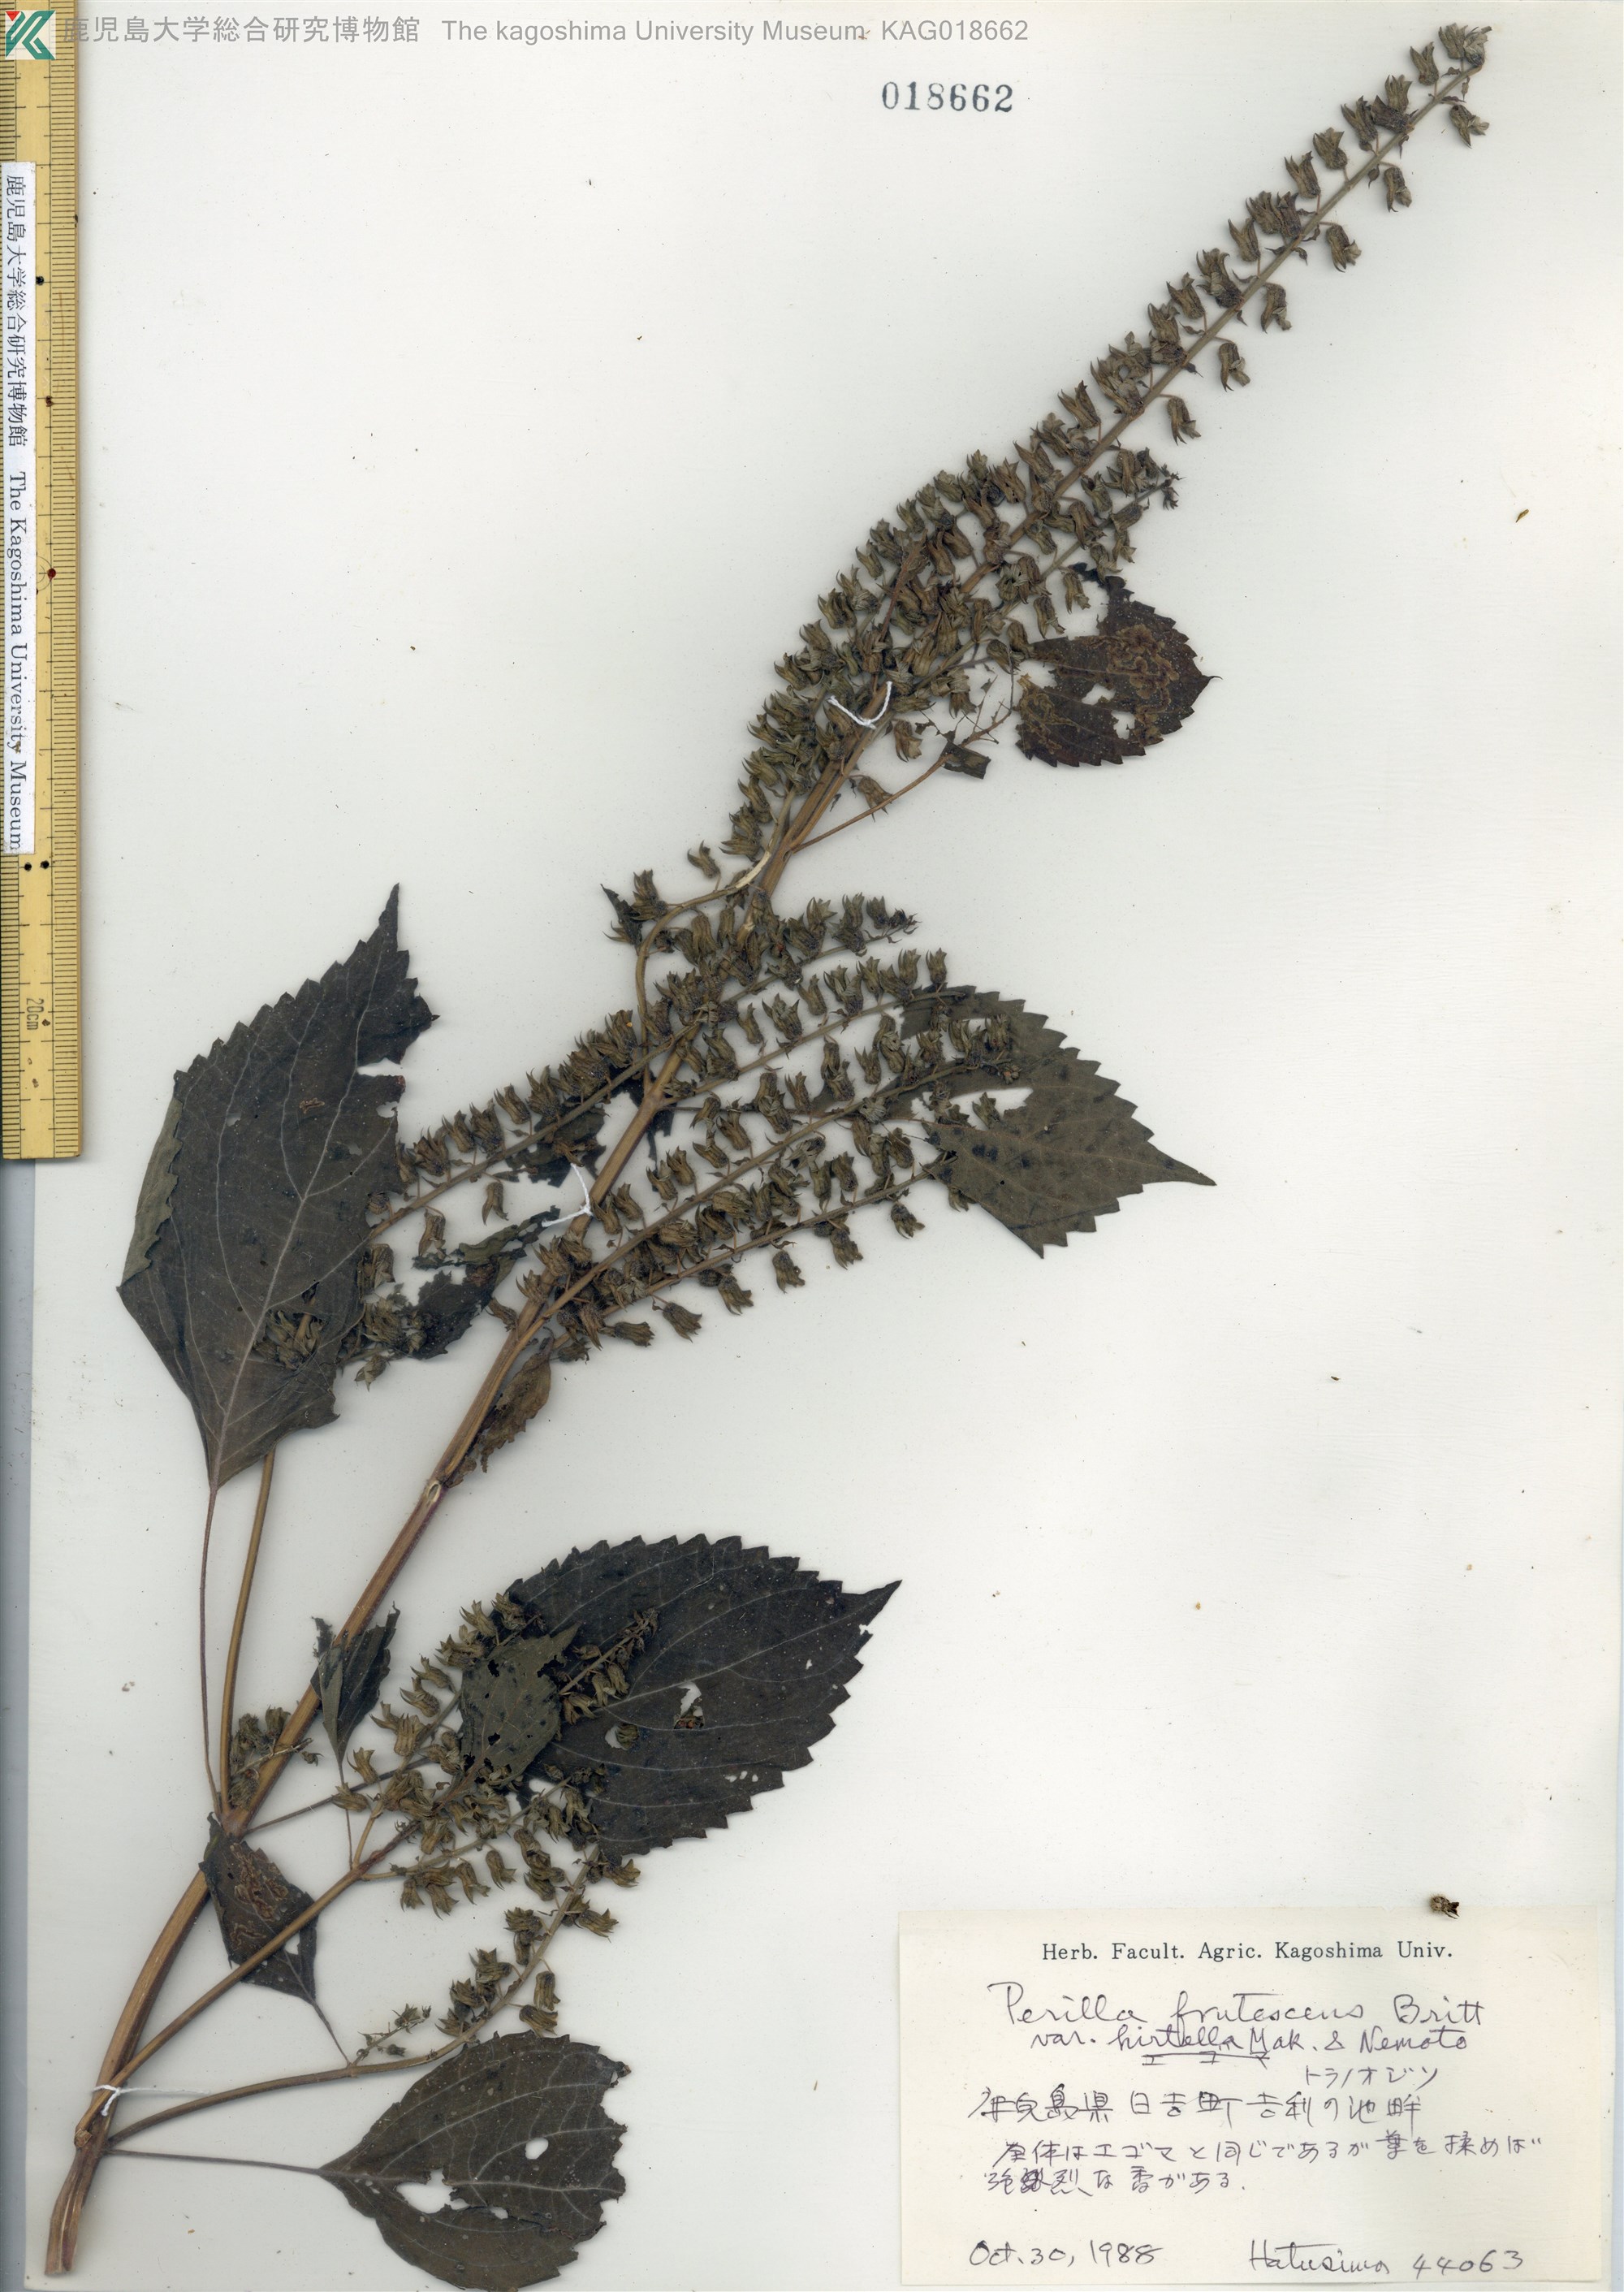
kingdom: Plantae
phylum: Tracheophyta
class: Magnoliopsida
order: Lamiales
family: Lamiaceae
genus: Perilla
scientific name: Perilla frutescens
